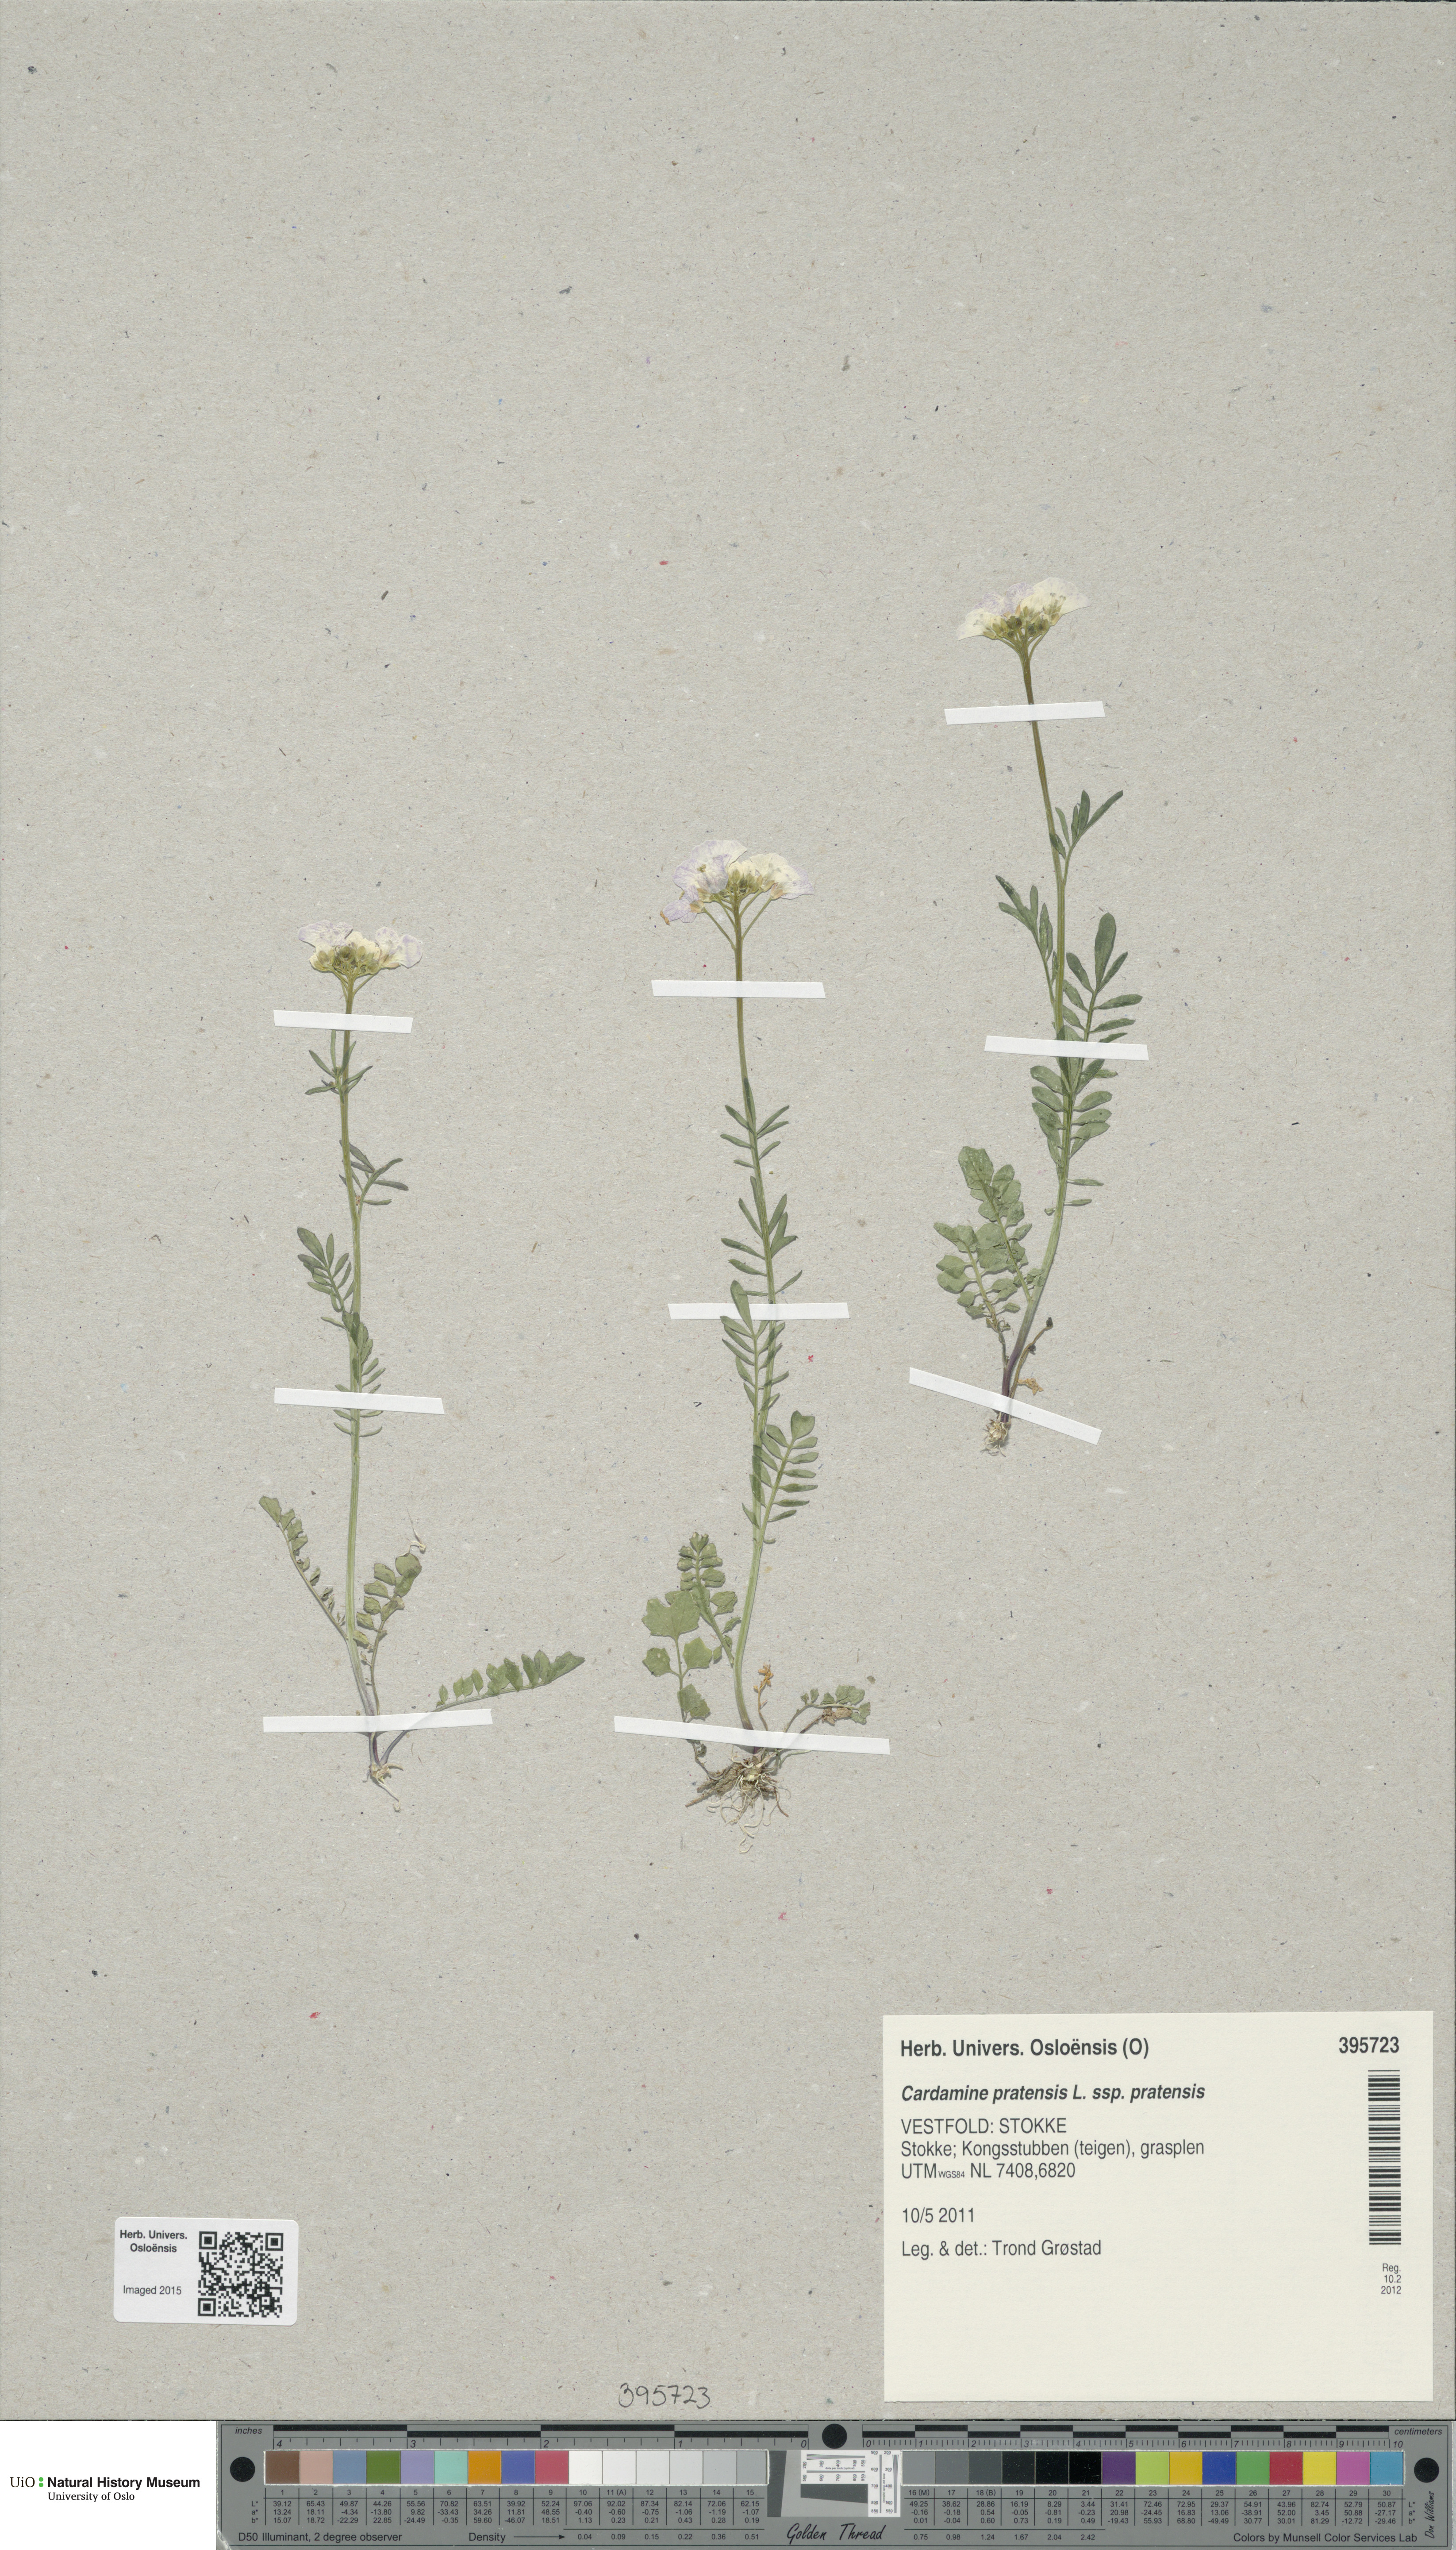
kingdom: Plantae
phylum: Tracheophyta
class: Magnoliopsida
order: Brassicales
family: Brassicaceae
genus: Cardamine
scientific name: Cardamine pratensis
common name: Cuckoo flower
